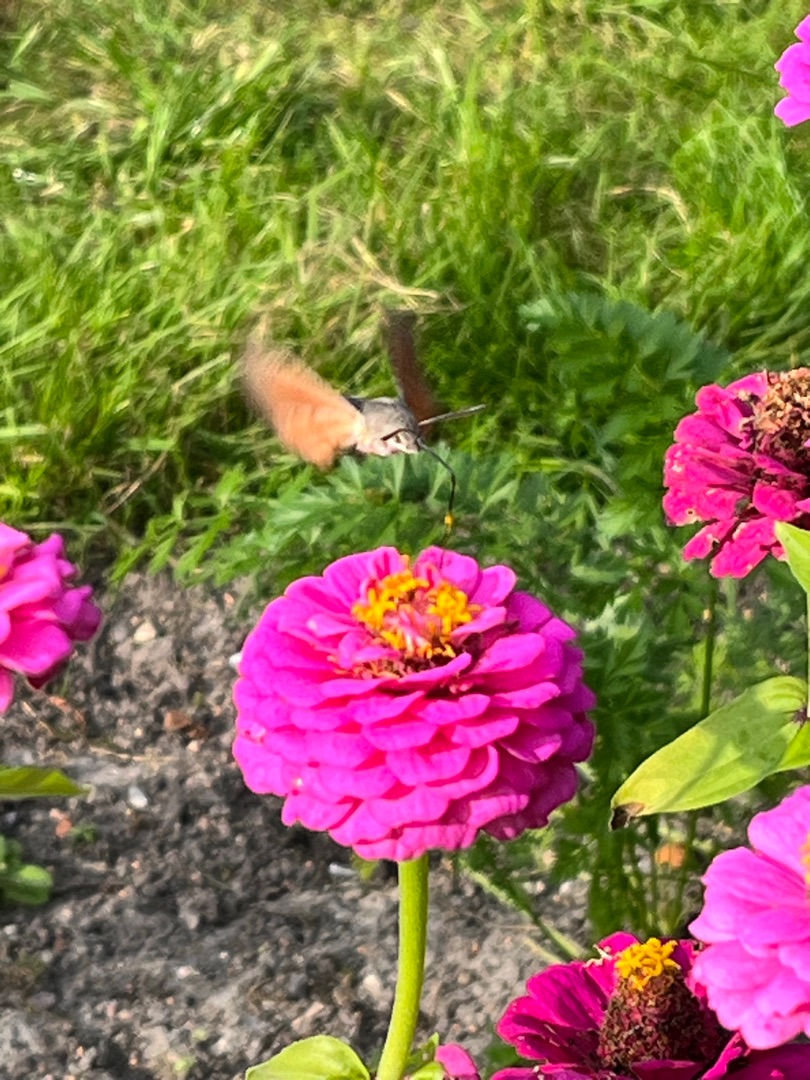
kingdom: Animalia
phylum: Arthropoda
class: Insecta
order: Lepidoptera
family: Sphingidae
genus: Macroglossum
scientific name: Macroglossum stellatarum
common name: Duehale
